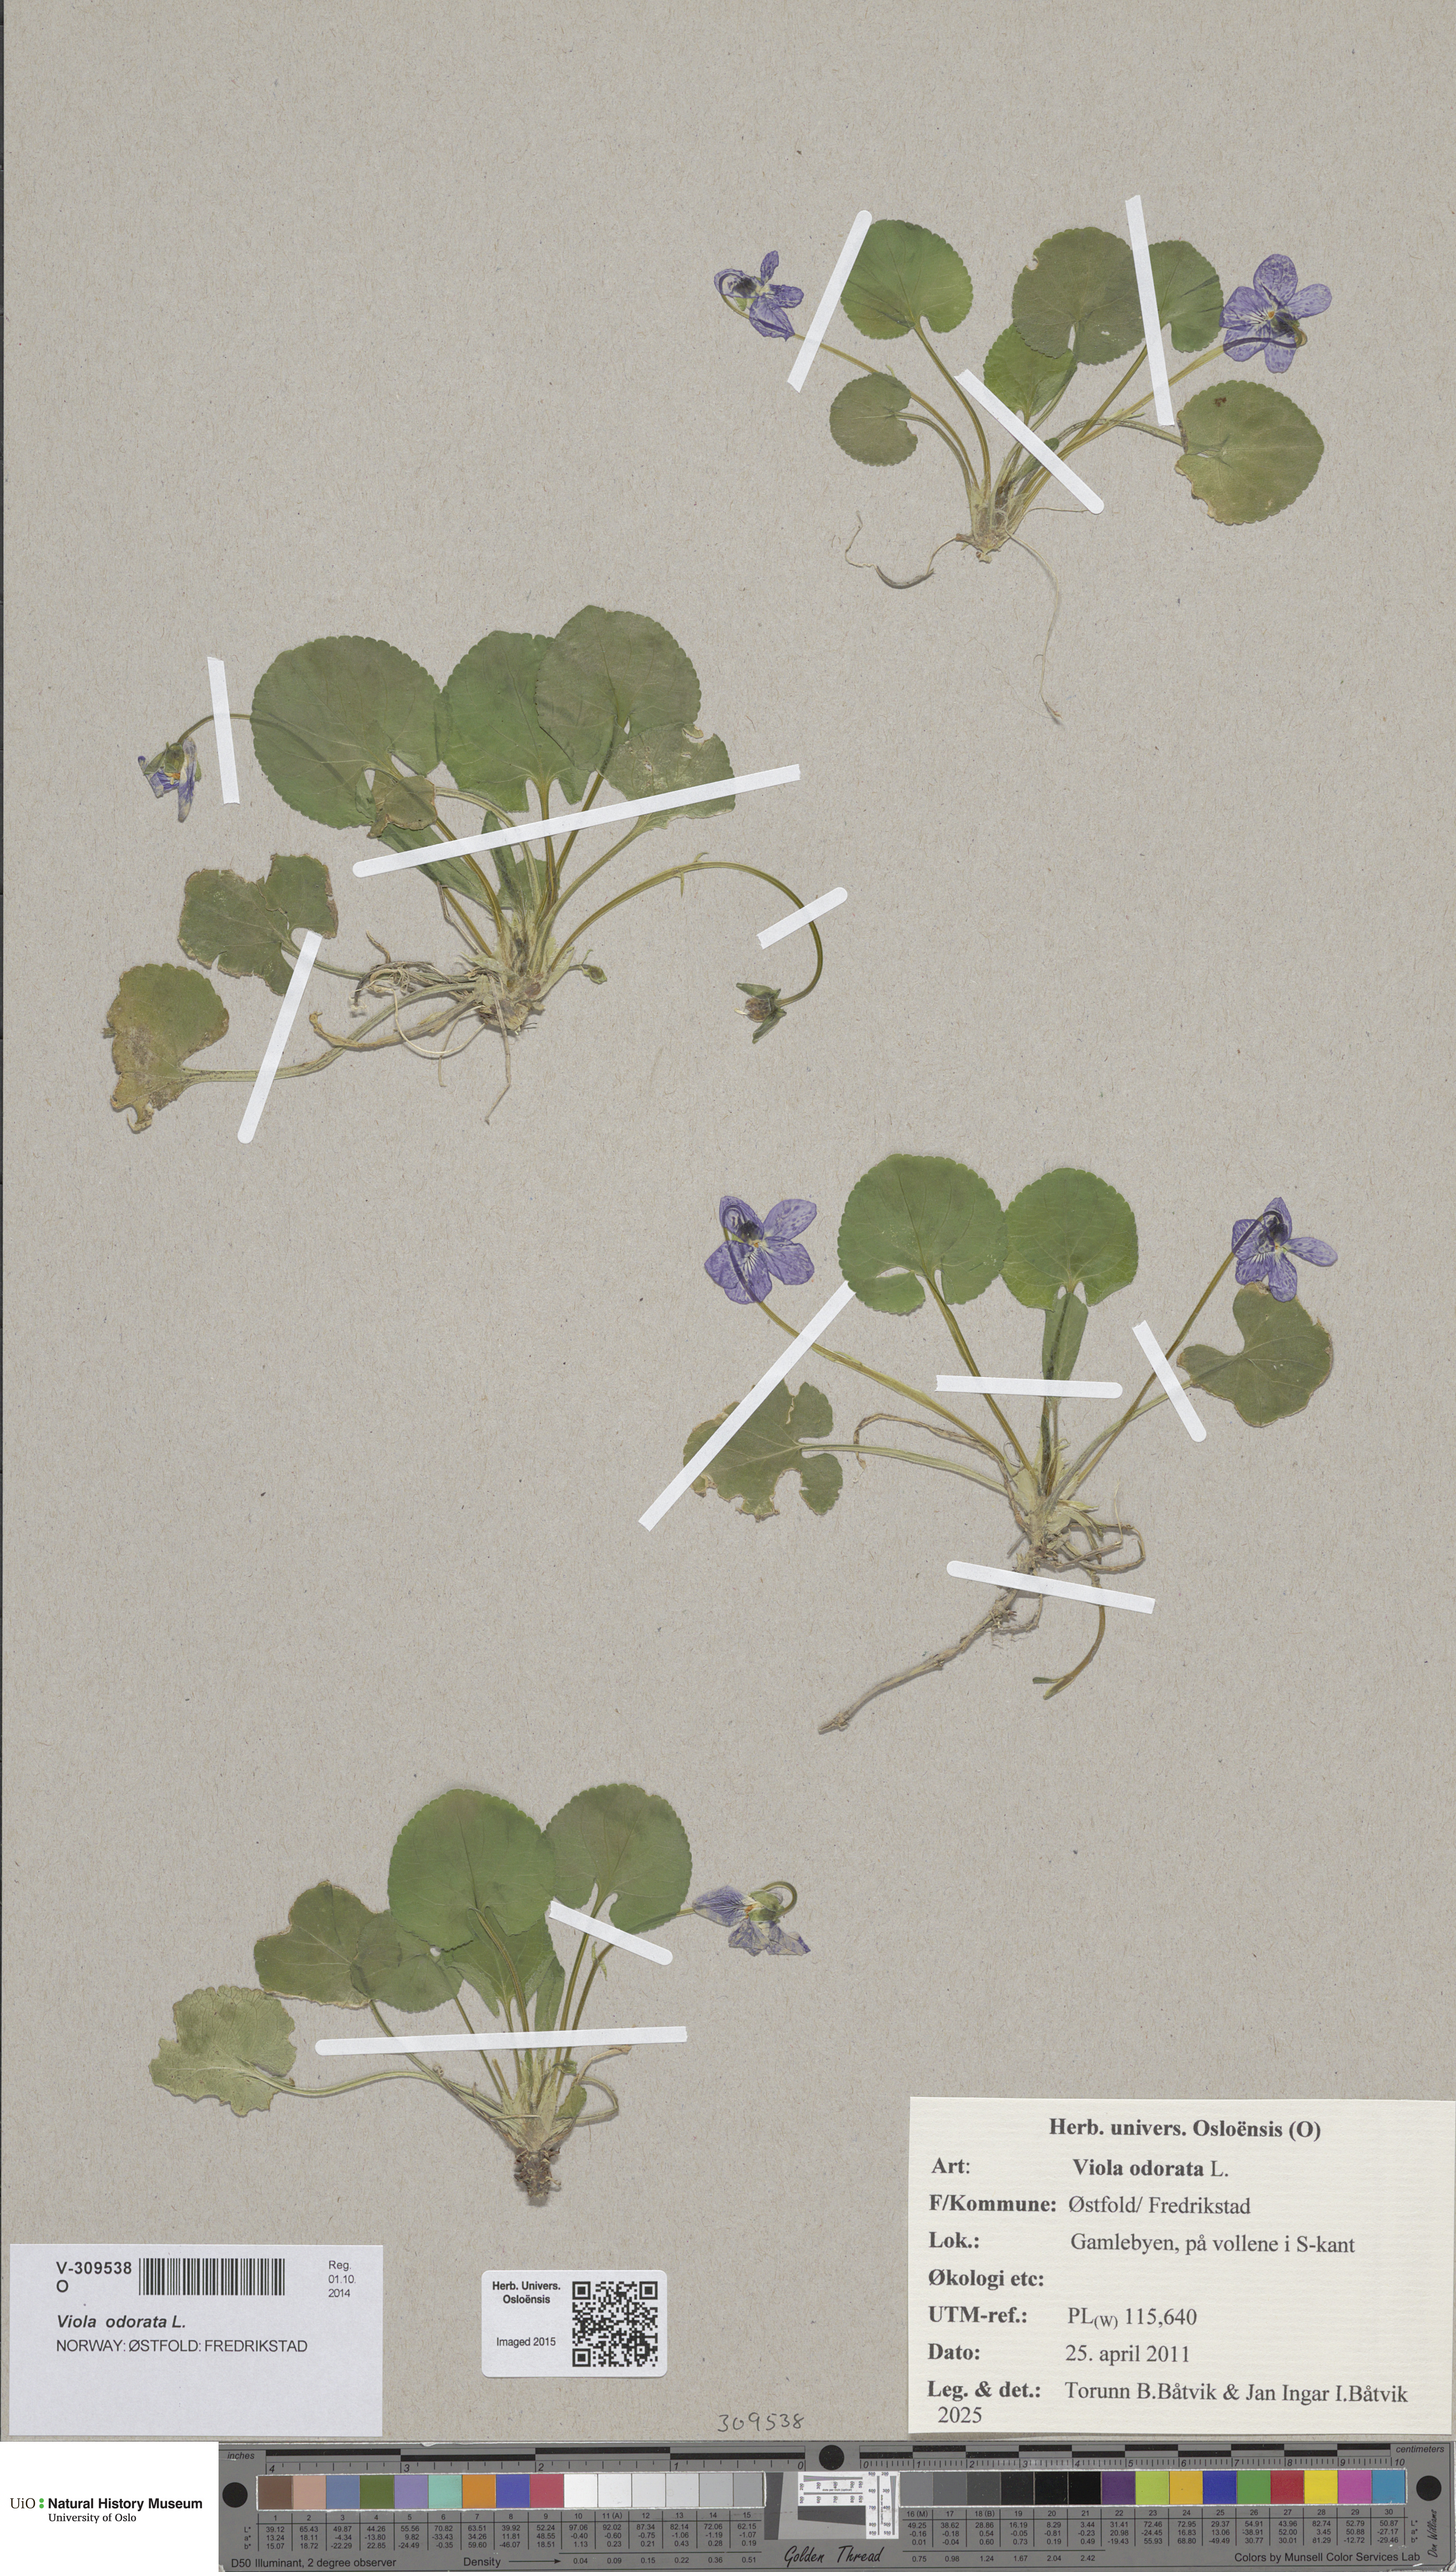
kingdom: Plantae
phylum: Tracheophyta
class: Magnoliopsida
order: Malpighiales
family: Violaceae
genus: Viola
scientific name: Viola odorata
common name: Sweet violet
